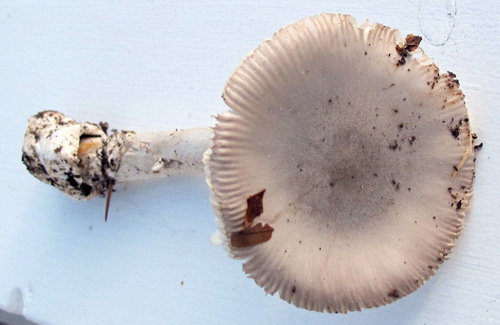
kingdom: Fungi
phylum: Basidiomycota
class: Agaricomycetes
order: Agaricales
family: Amanitaceae
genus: Amanita
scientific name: Amanita argentea
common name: sølvgrå kam-fluesvamp
